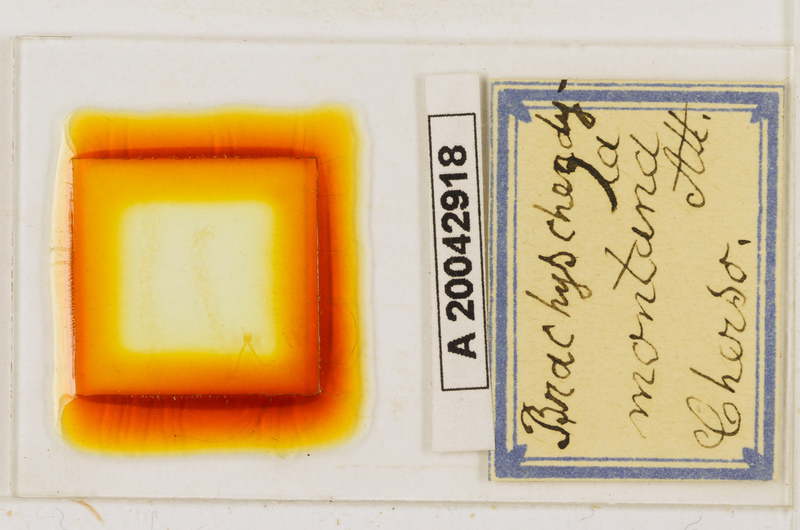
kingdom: Animalia
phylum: Arthropoda
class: Chilopoda
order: Geophilomorpha
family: Schendylidae
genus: Schendyla
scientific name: Schendyla
